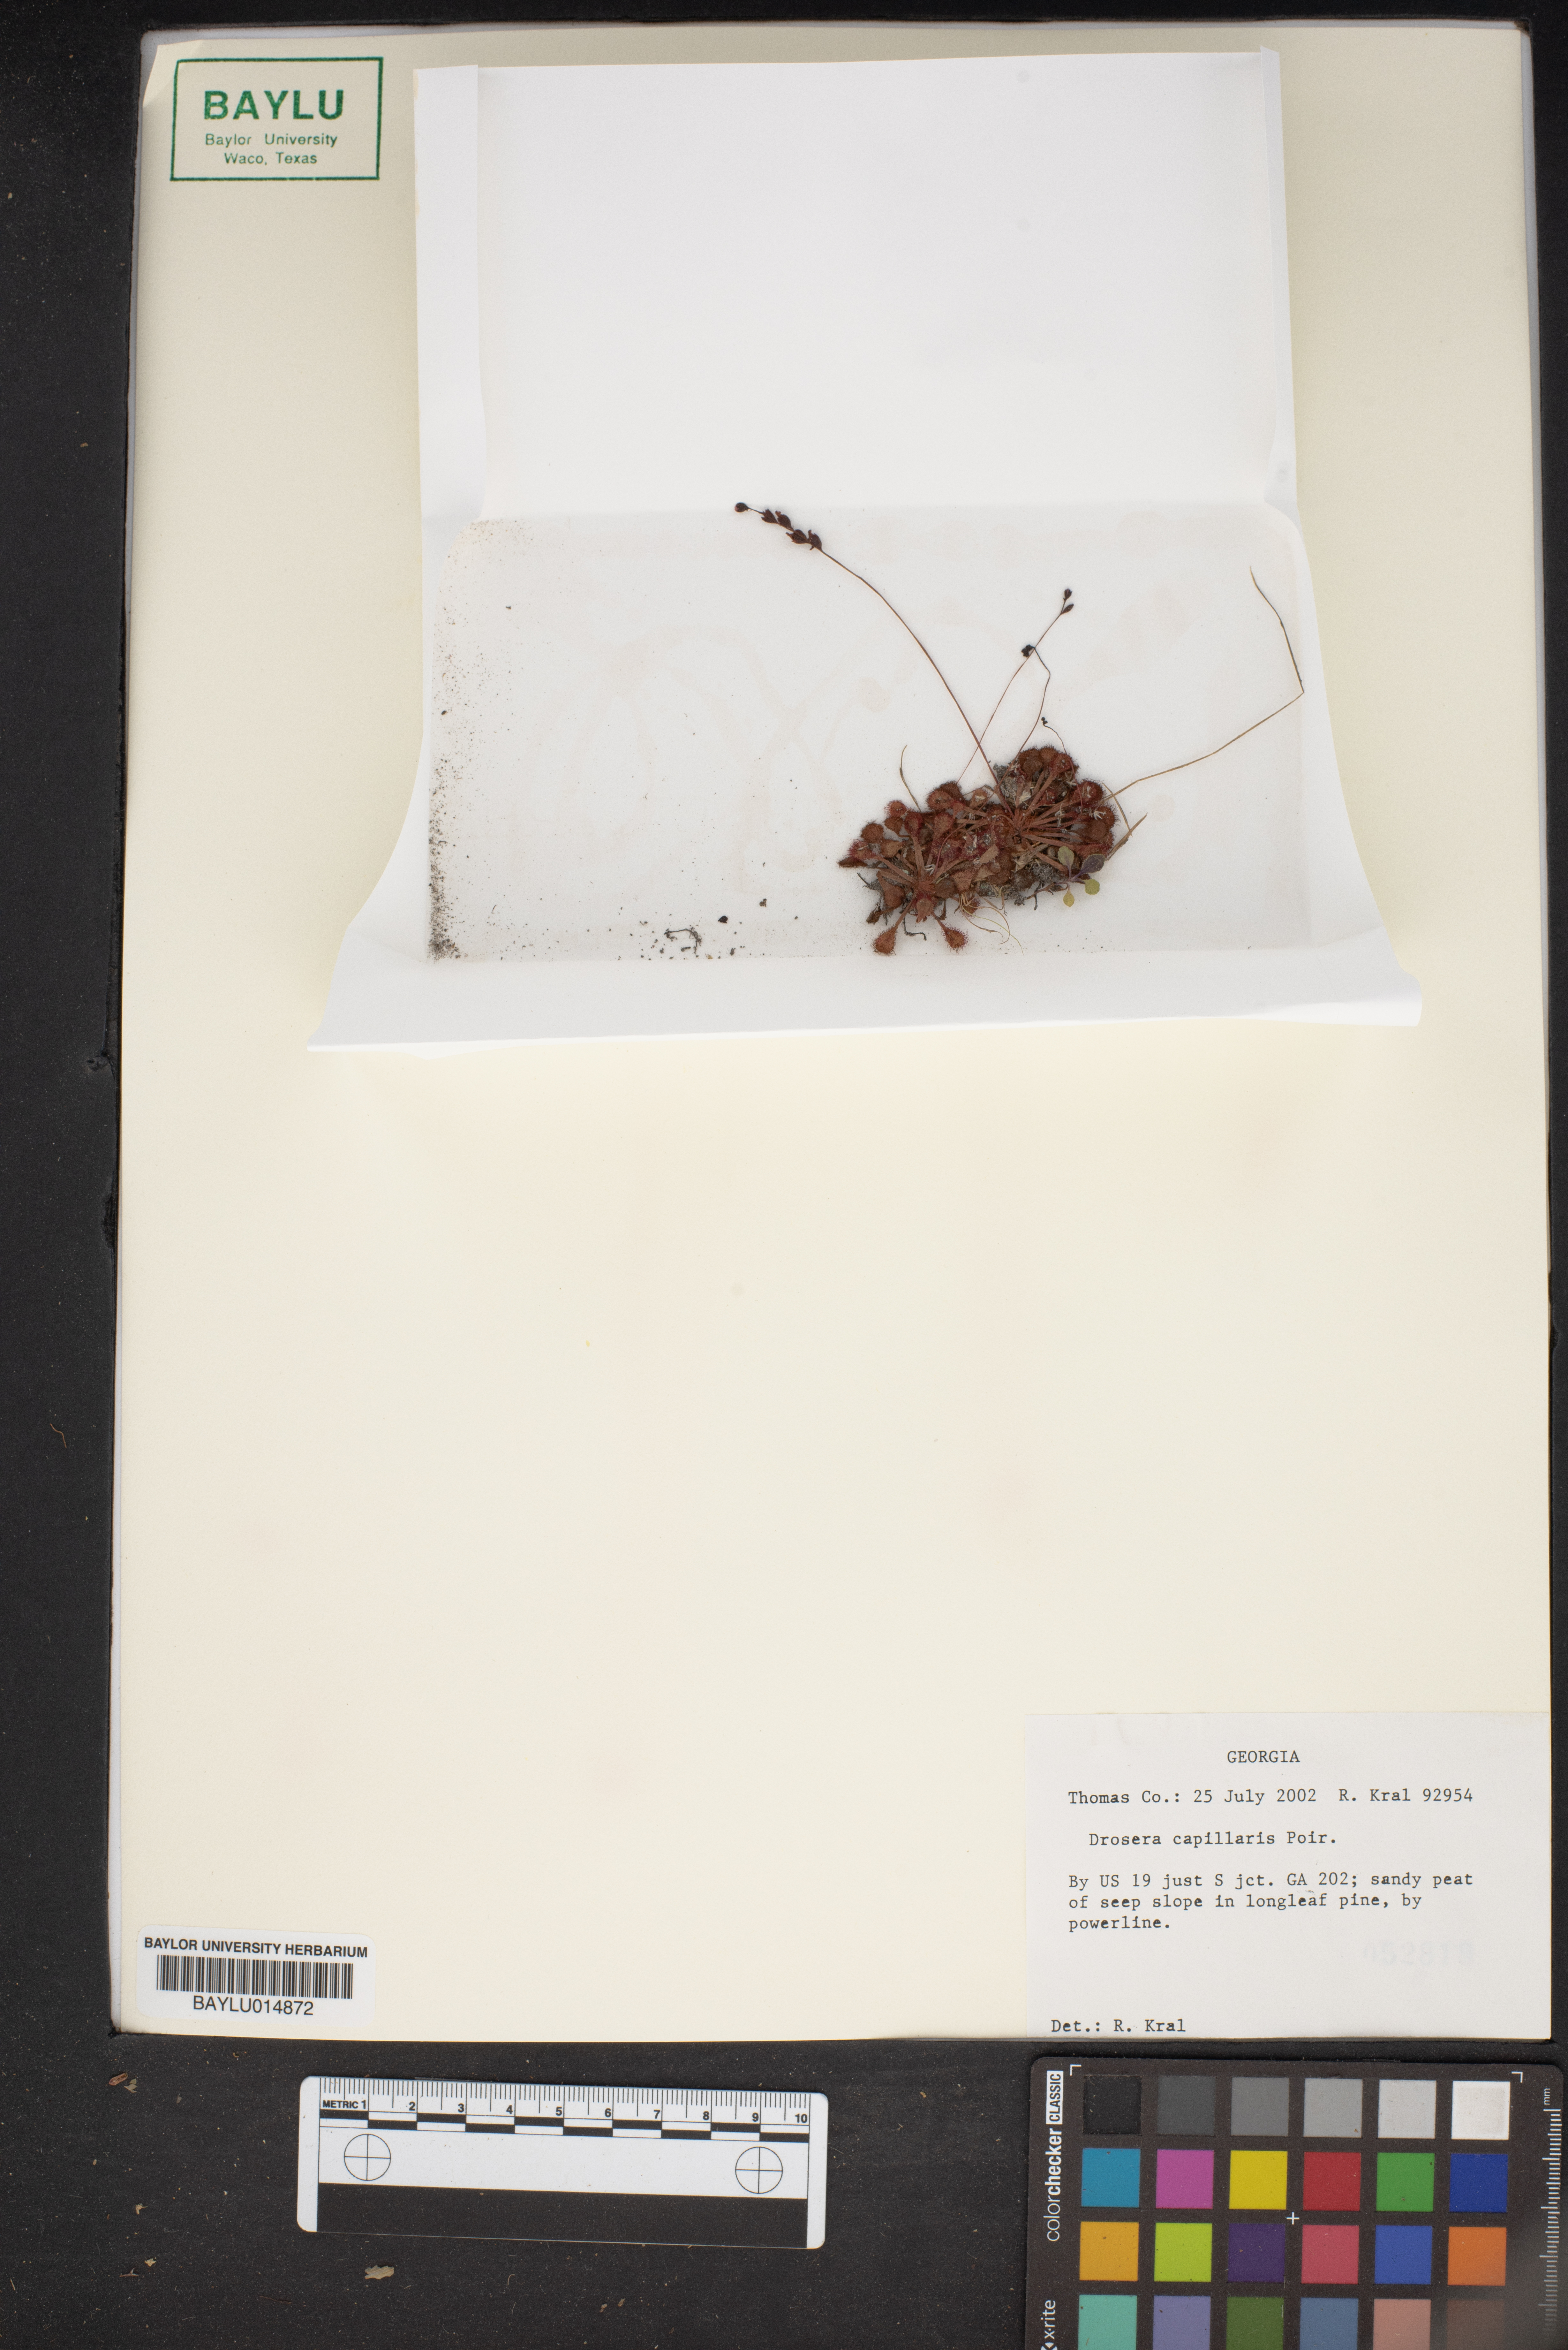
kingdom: Plantae
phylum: Tracheophyta
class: Magnoliopsida
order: Caryophyllales
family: Droseraceae
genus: Drosera
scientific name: Drosera capillaris
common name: Pink sundew
